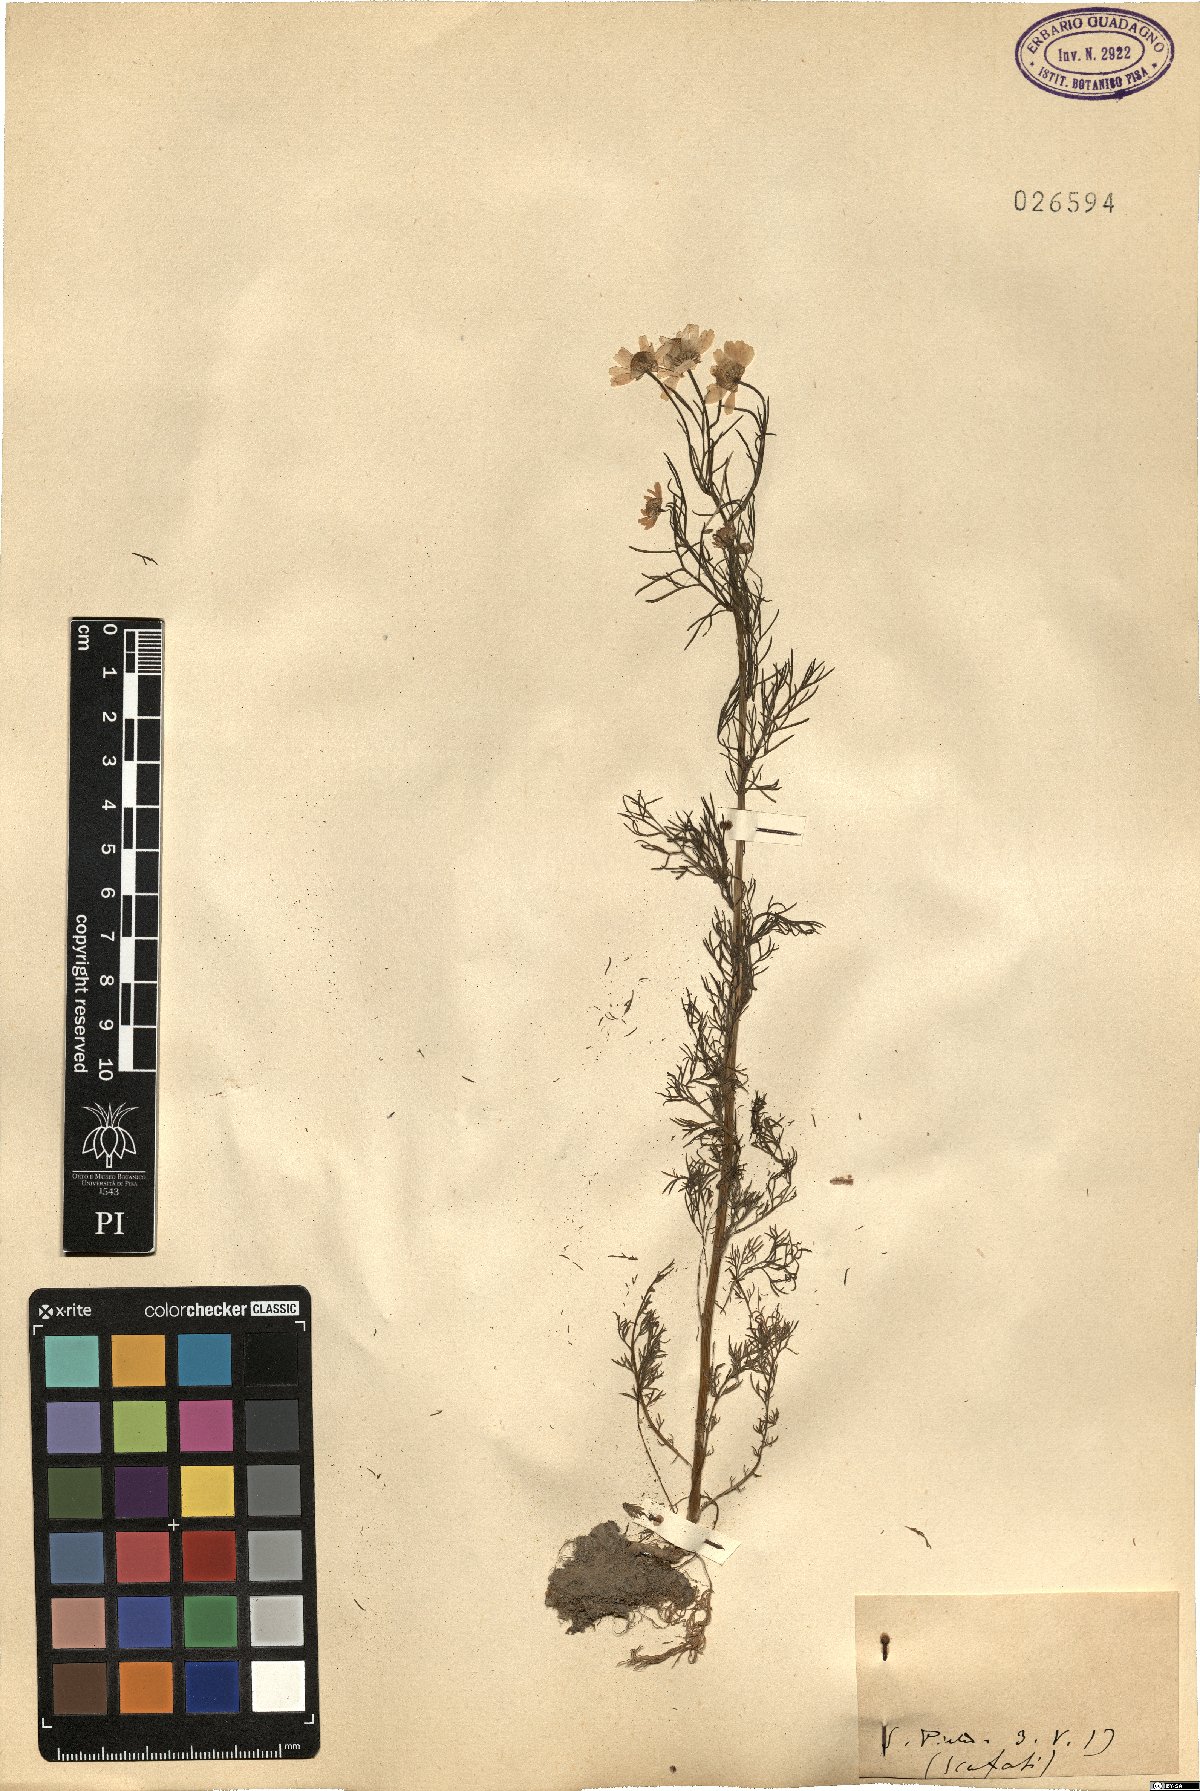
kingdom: Plantae
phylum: Tracheophyta
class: Magnoliopsida
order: Asterales
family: Asteraceae
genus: Matricaria
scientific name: Matricaria
